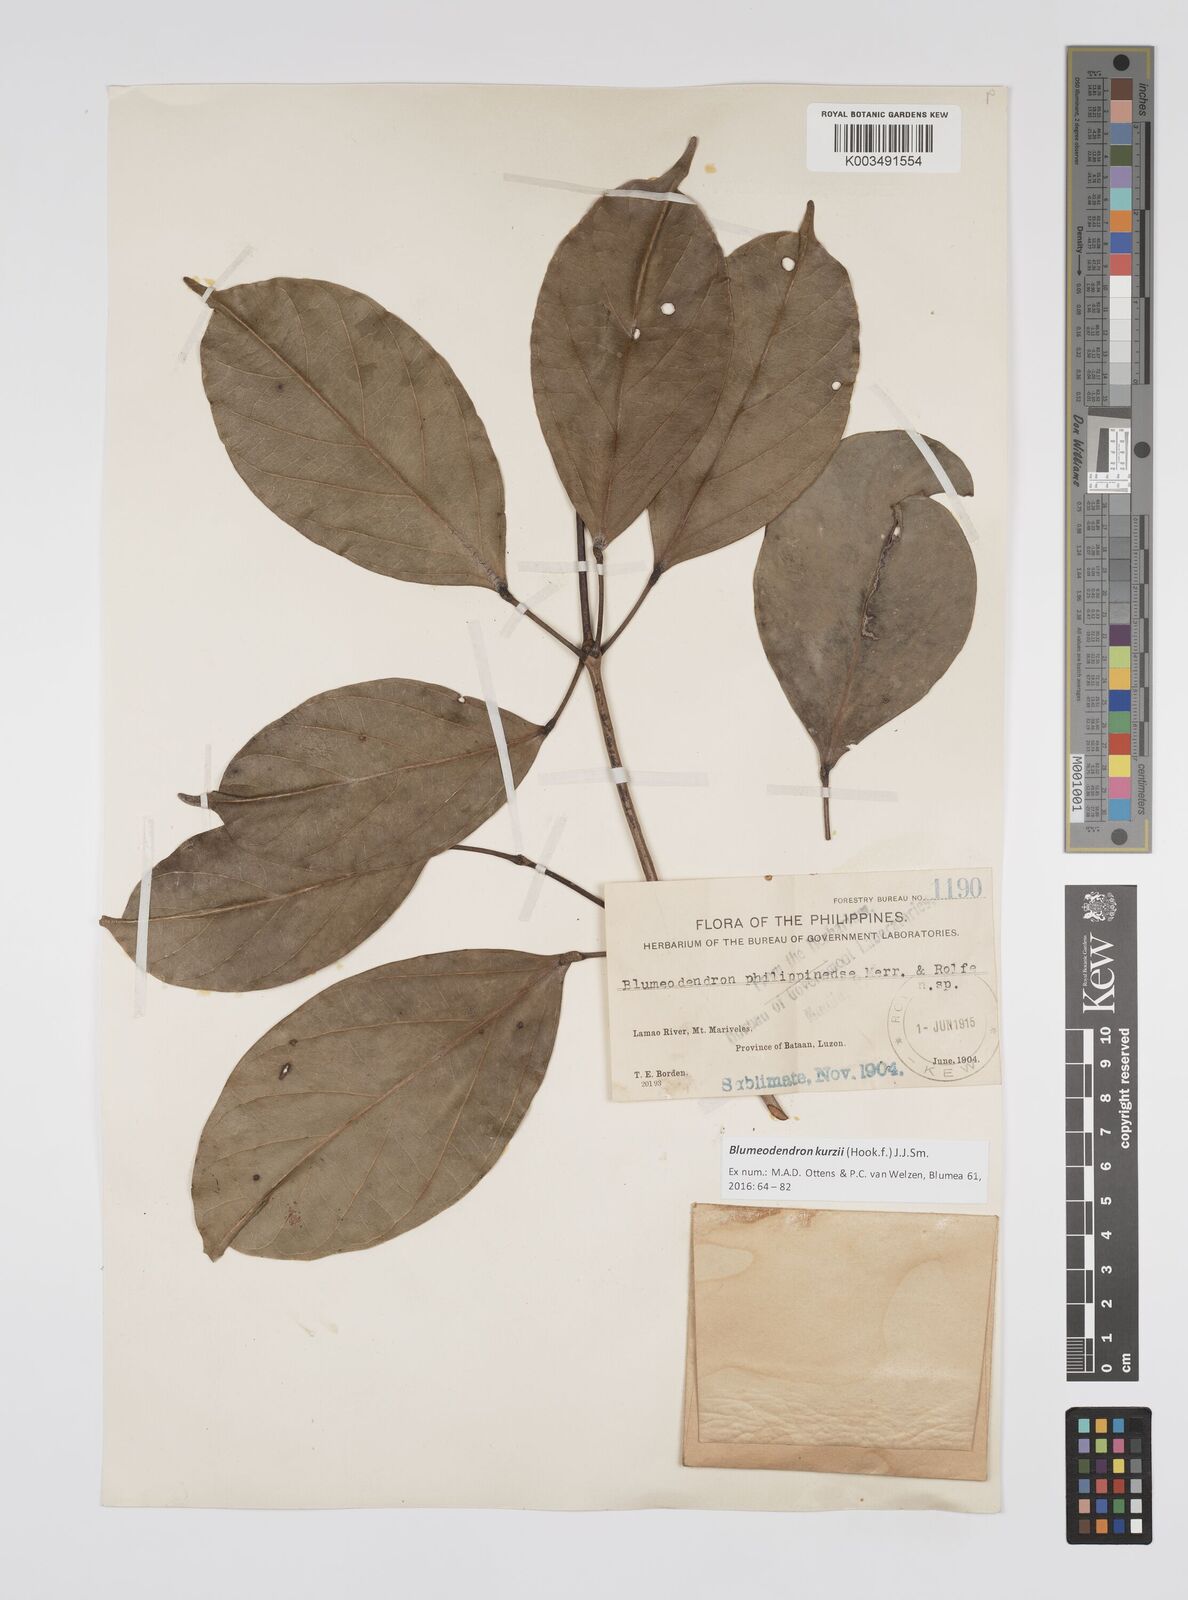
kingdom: Plantae
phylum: Tracheophyta
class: Magnoliopsida
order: Malpighiales
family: Euphorbiaceae
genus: Blumeodendron
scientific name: Blumeodendron kurzii
